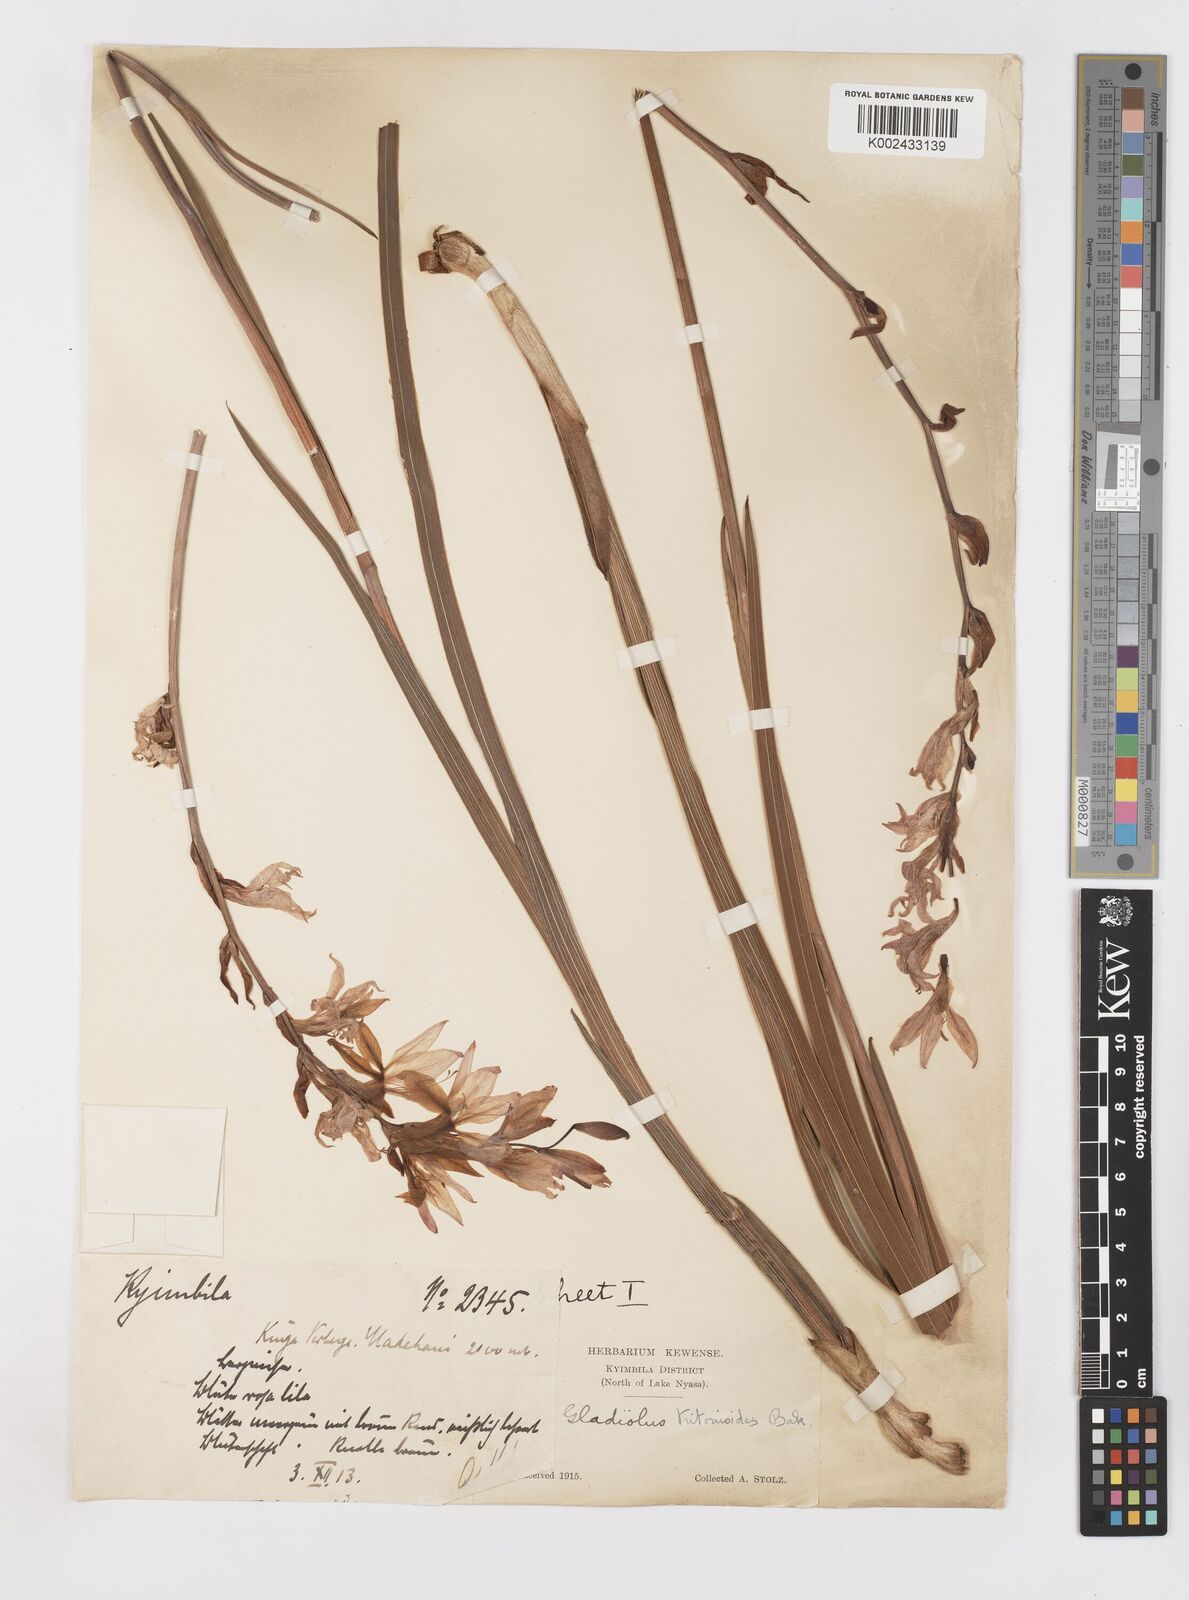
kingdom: Plantae
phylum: Tracheophyta
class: Liliopsida
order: Asparagales
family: Iridaceae
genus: Gladiolus
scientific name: Gladiolus laxiflorus
